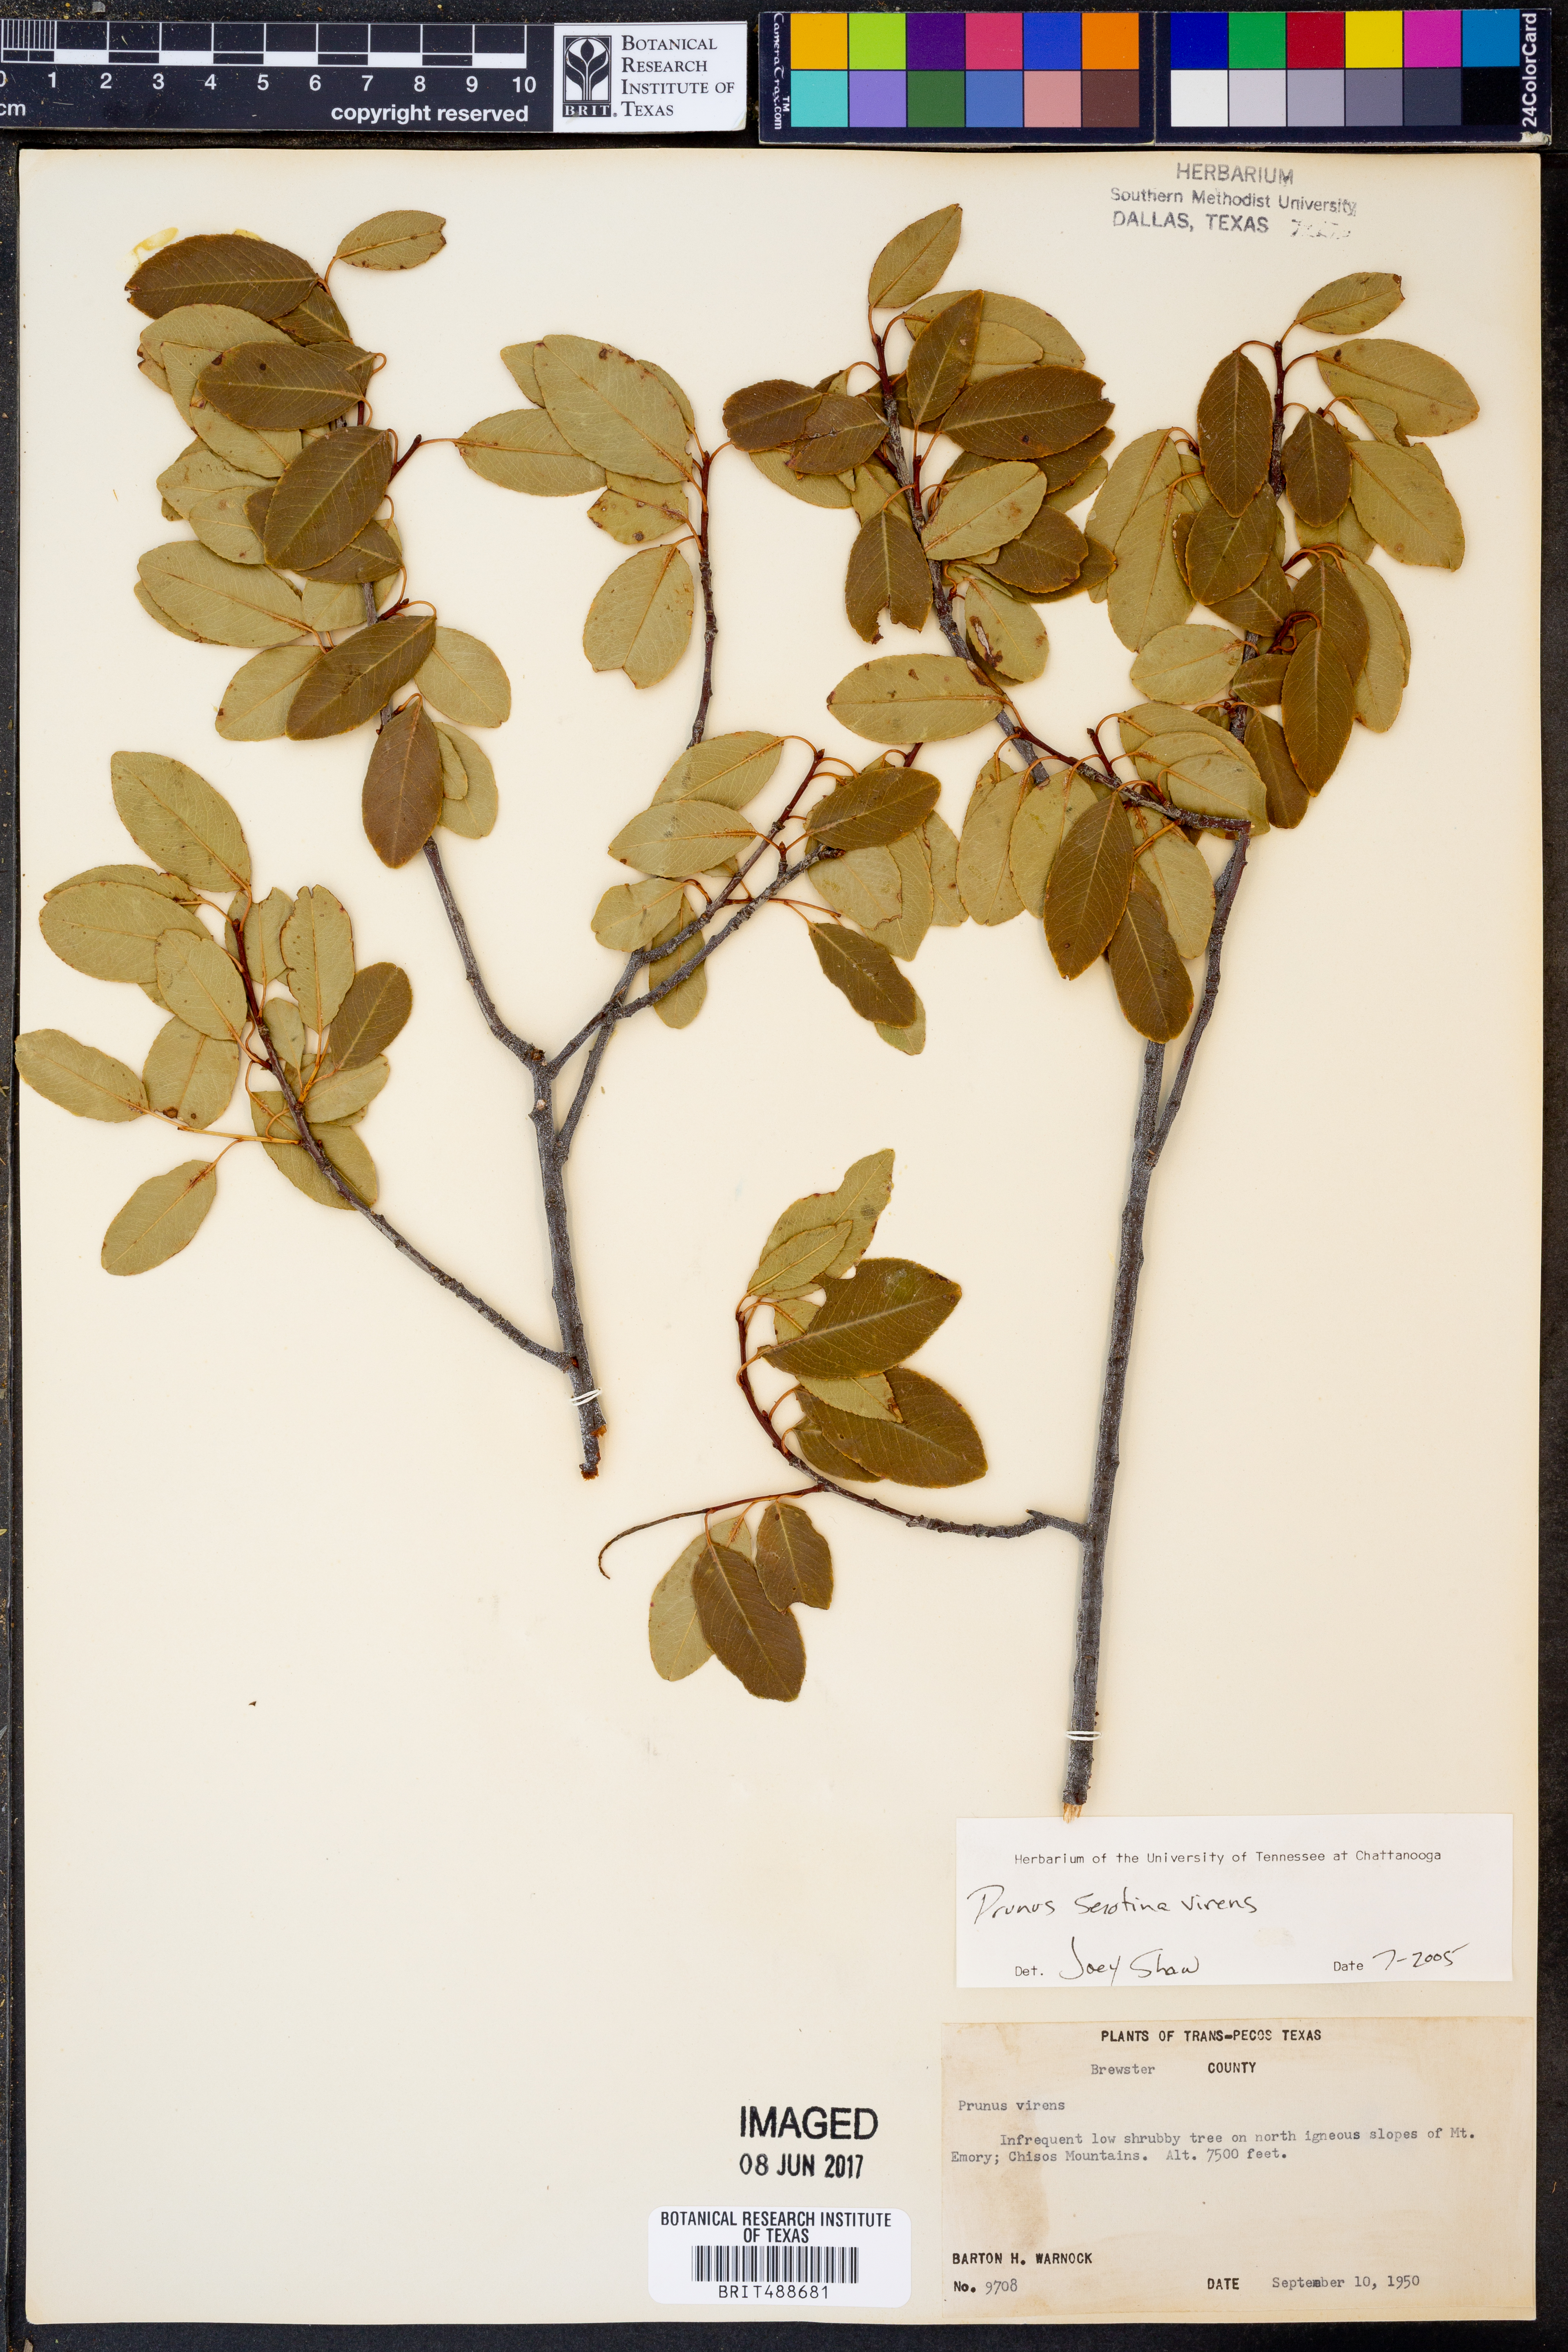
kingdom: Plantae
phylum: Tracheophyta
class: Magnoliopsida
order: Rosales
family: Rosaceae
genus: Prunus
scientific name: Prunus serotina
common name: Black cherry
